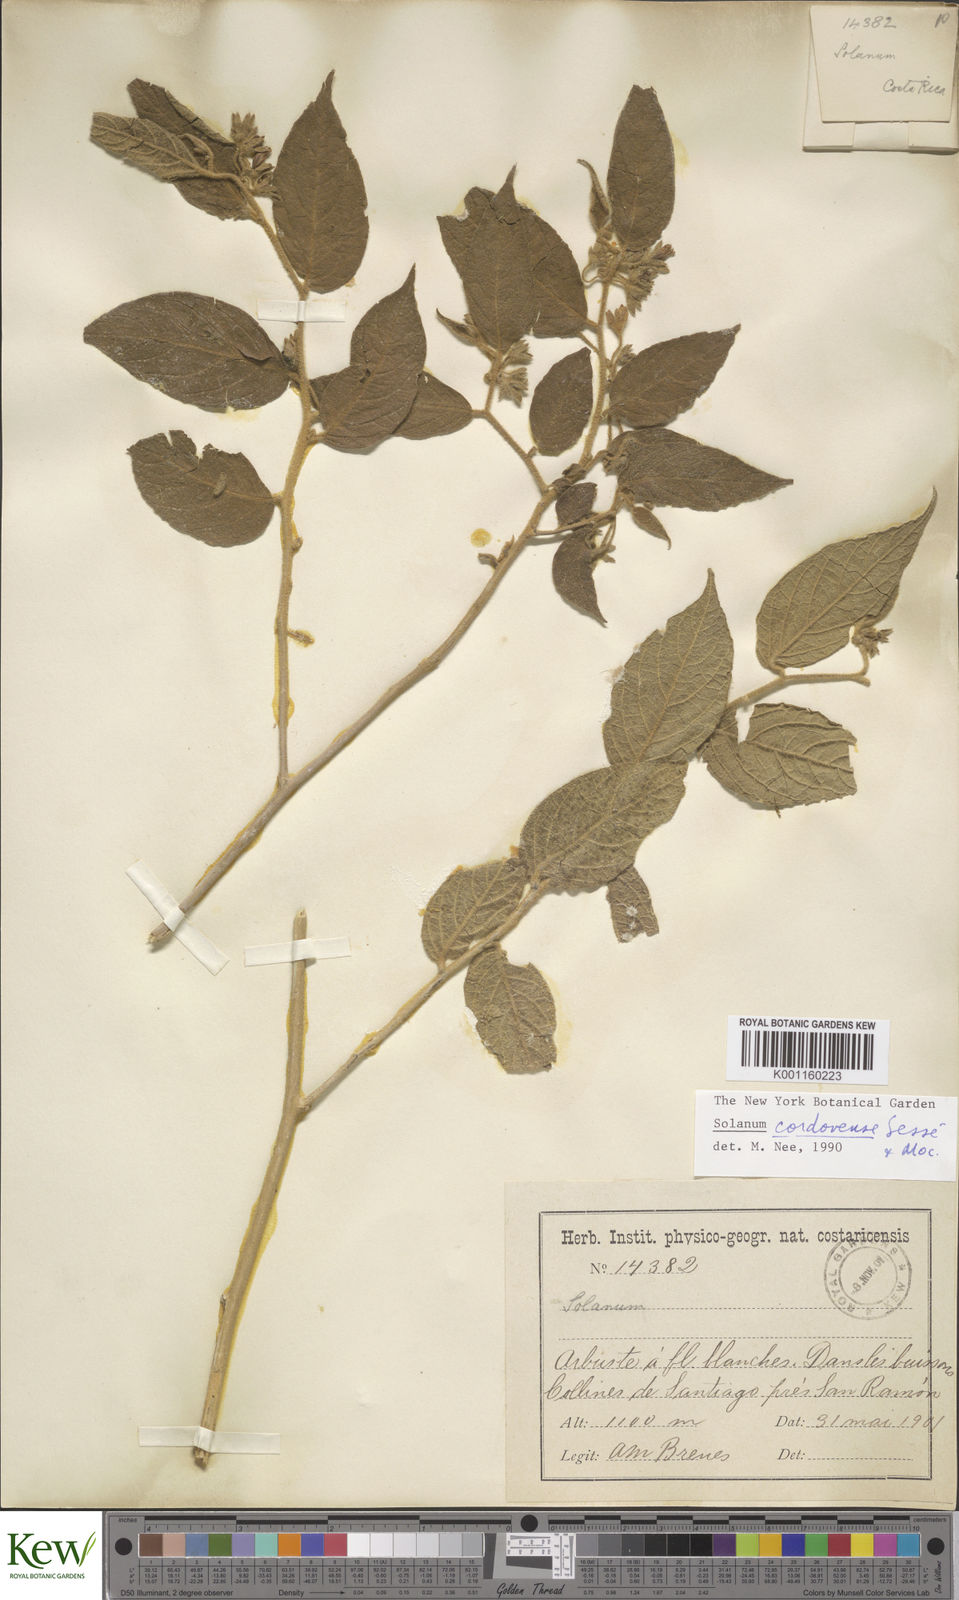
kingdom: Plantae
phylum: Tracheophyta
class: Magnoliopsida
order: Solanales
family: Solanaceae
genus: Solanum
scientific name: Solanum
